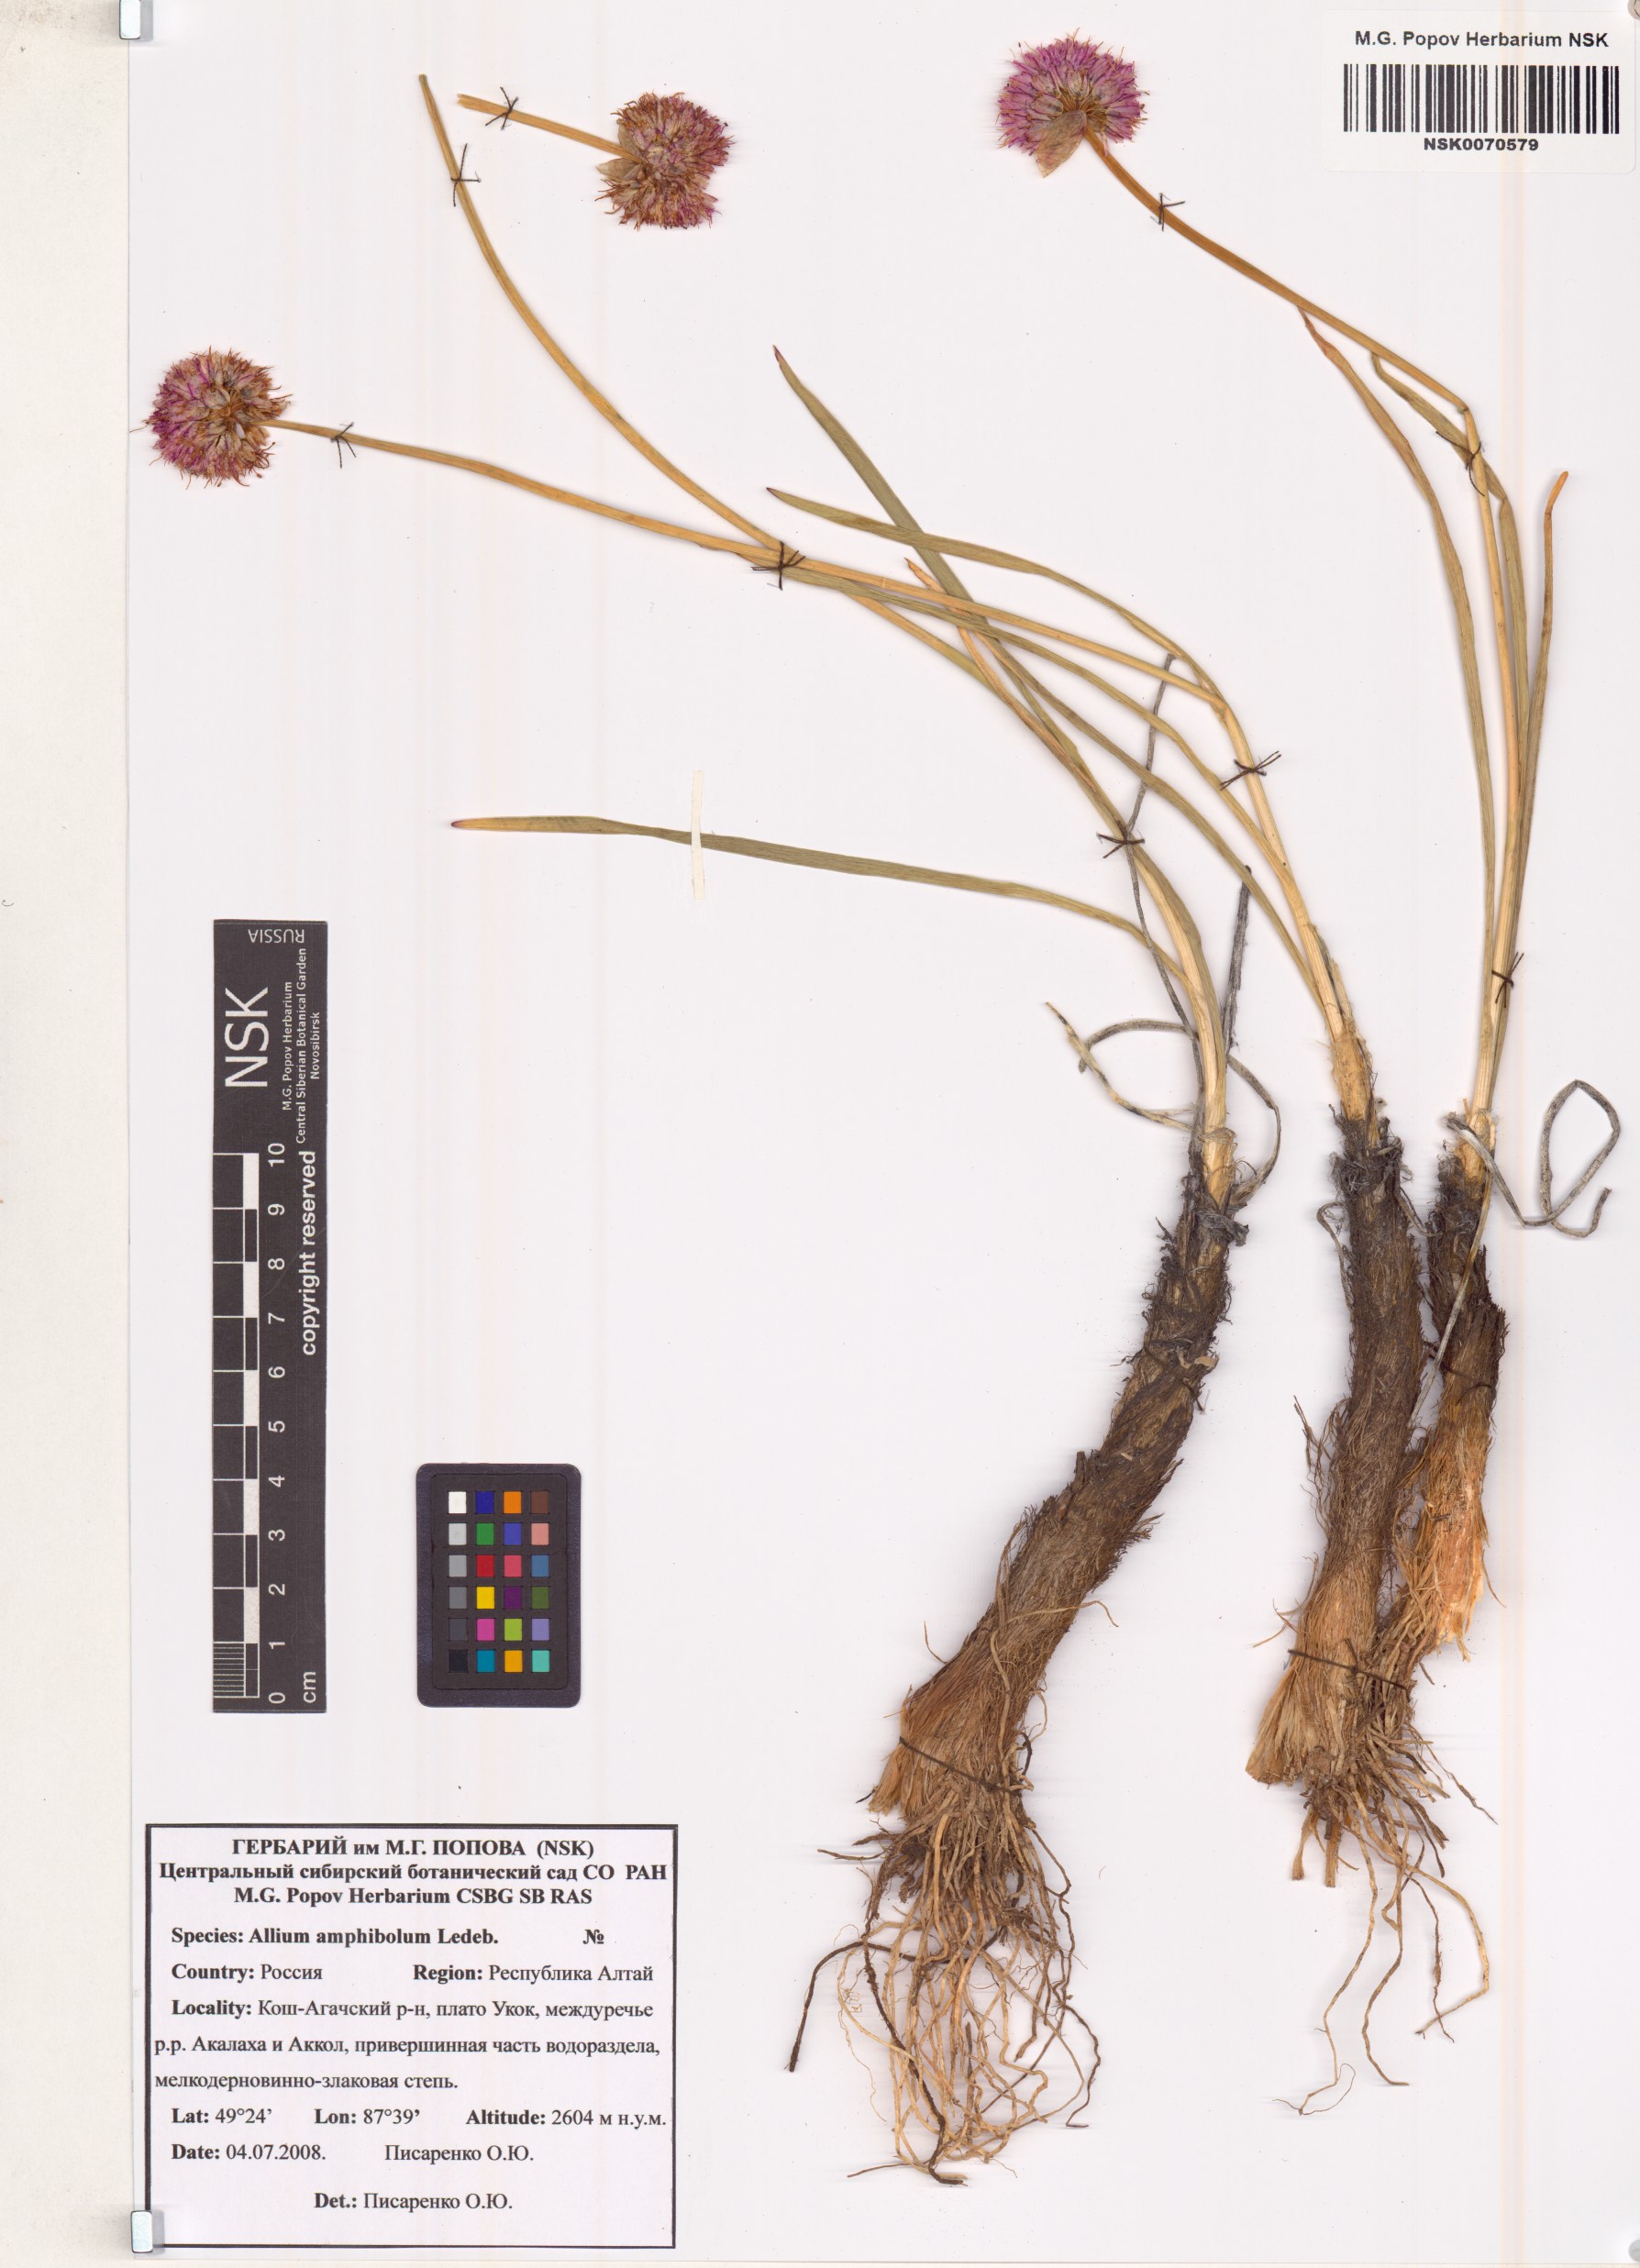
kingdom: Plantae
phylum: Tracheophyta
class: Liliopsida
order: Asparagales
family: Amaryllidaceae
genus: Allium
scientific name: Allium amphibolum
